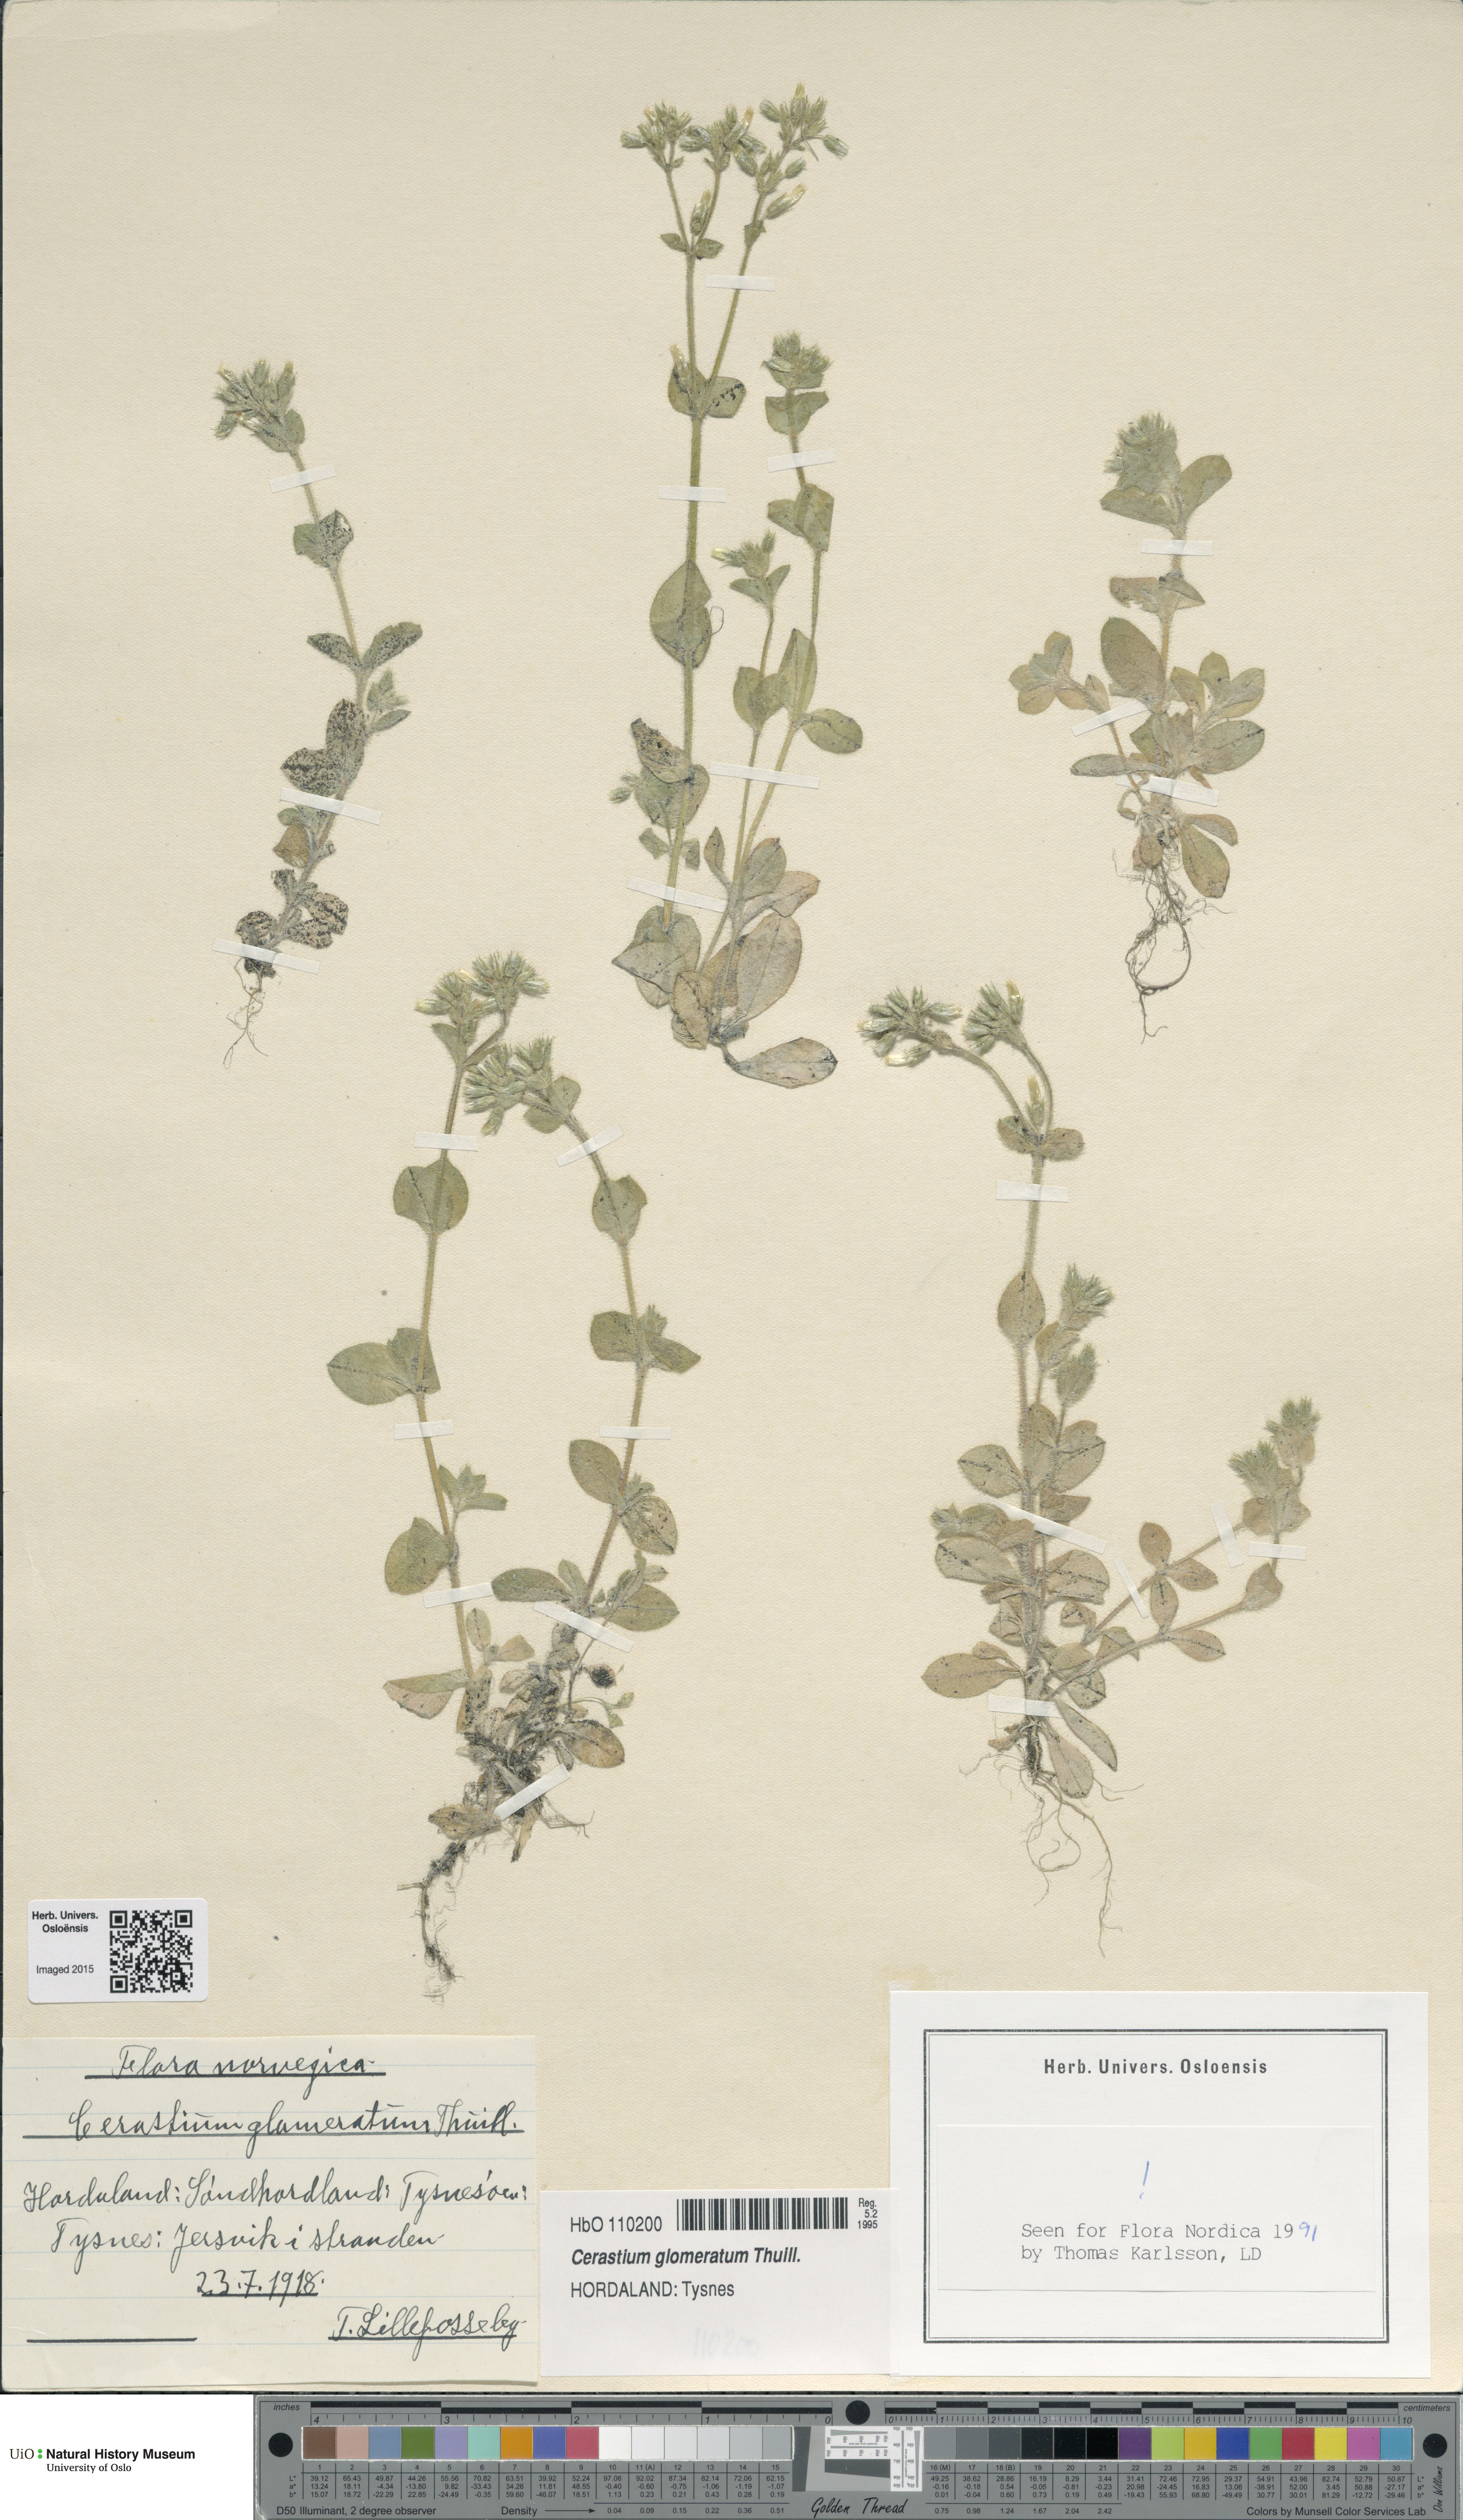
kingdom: Plantae
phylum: Tracheophyta
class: Magnoliopsida
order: Caryophyllales
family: Caryophyllaceae
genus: Cerastium
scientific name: Cerastium glomeratum
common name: Sticky chickweed
